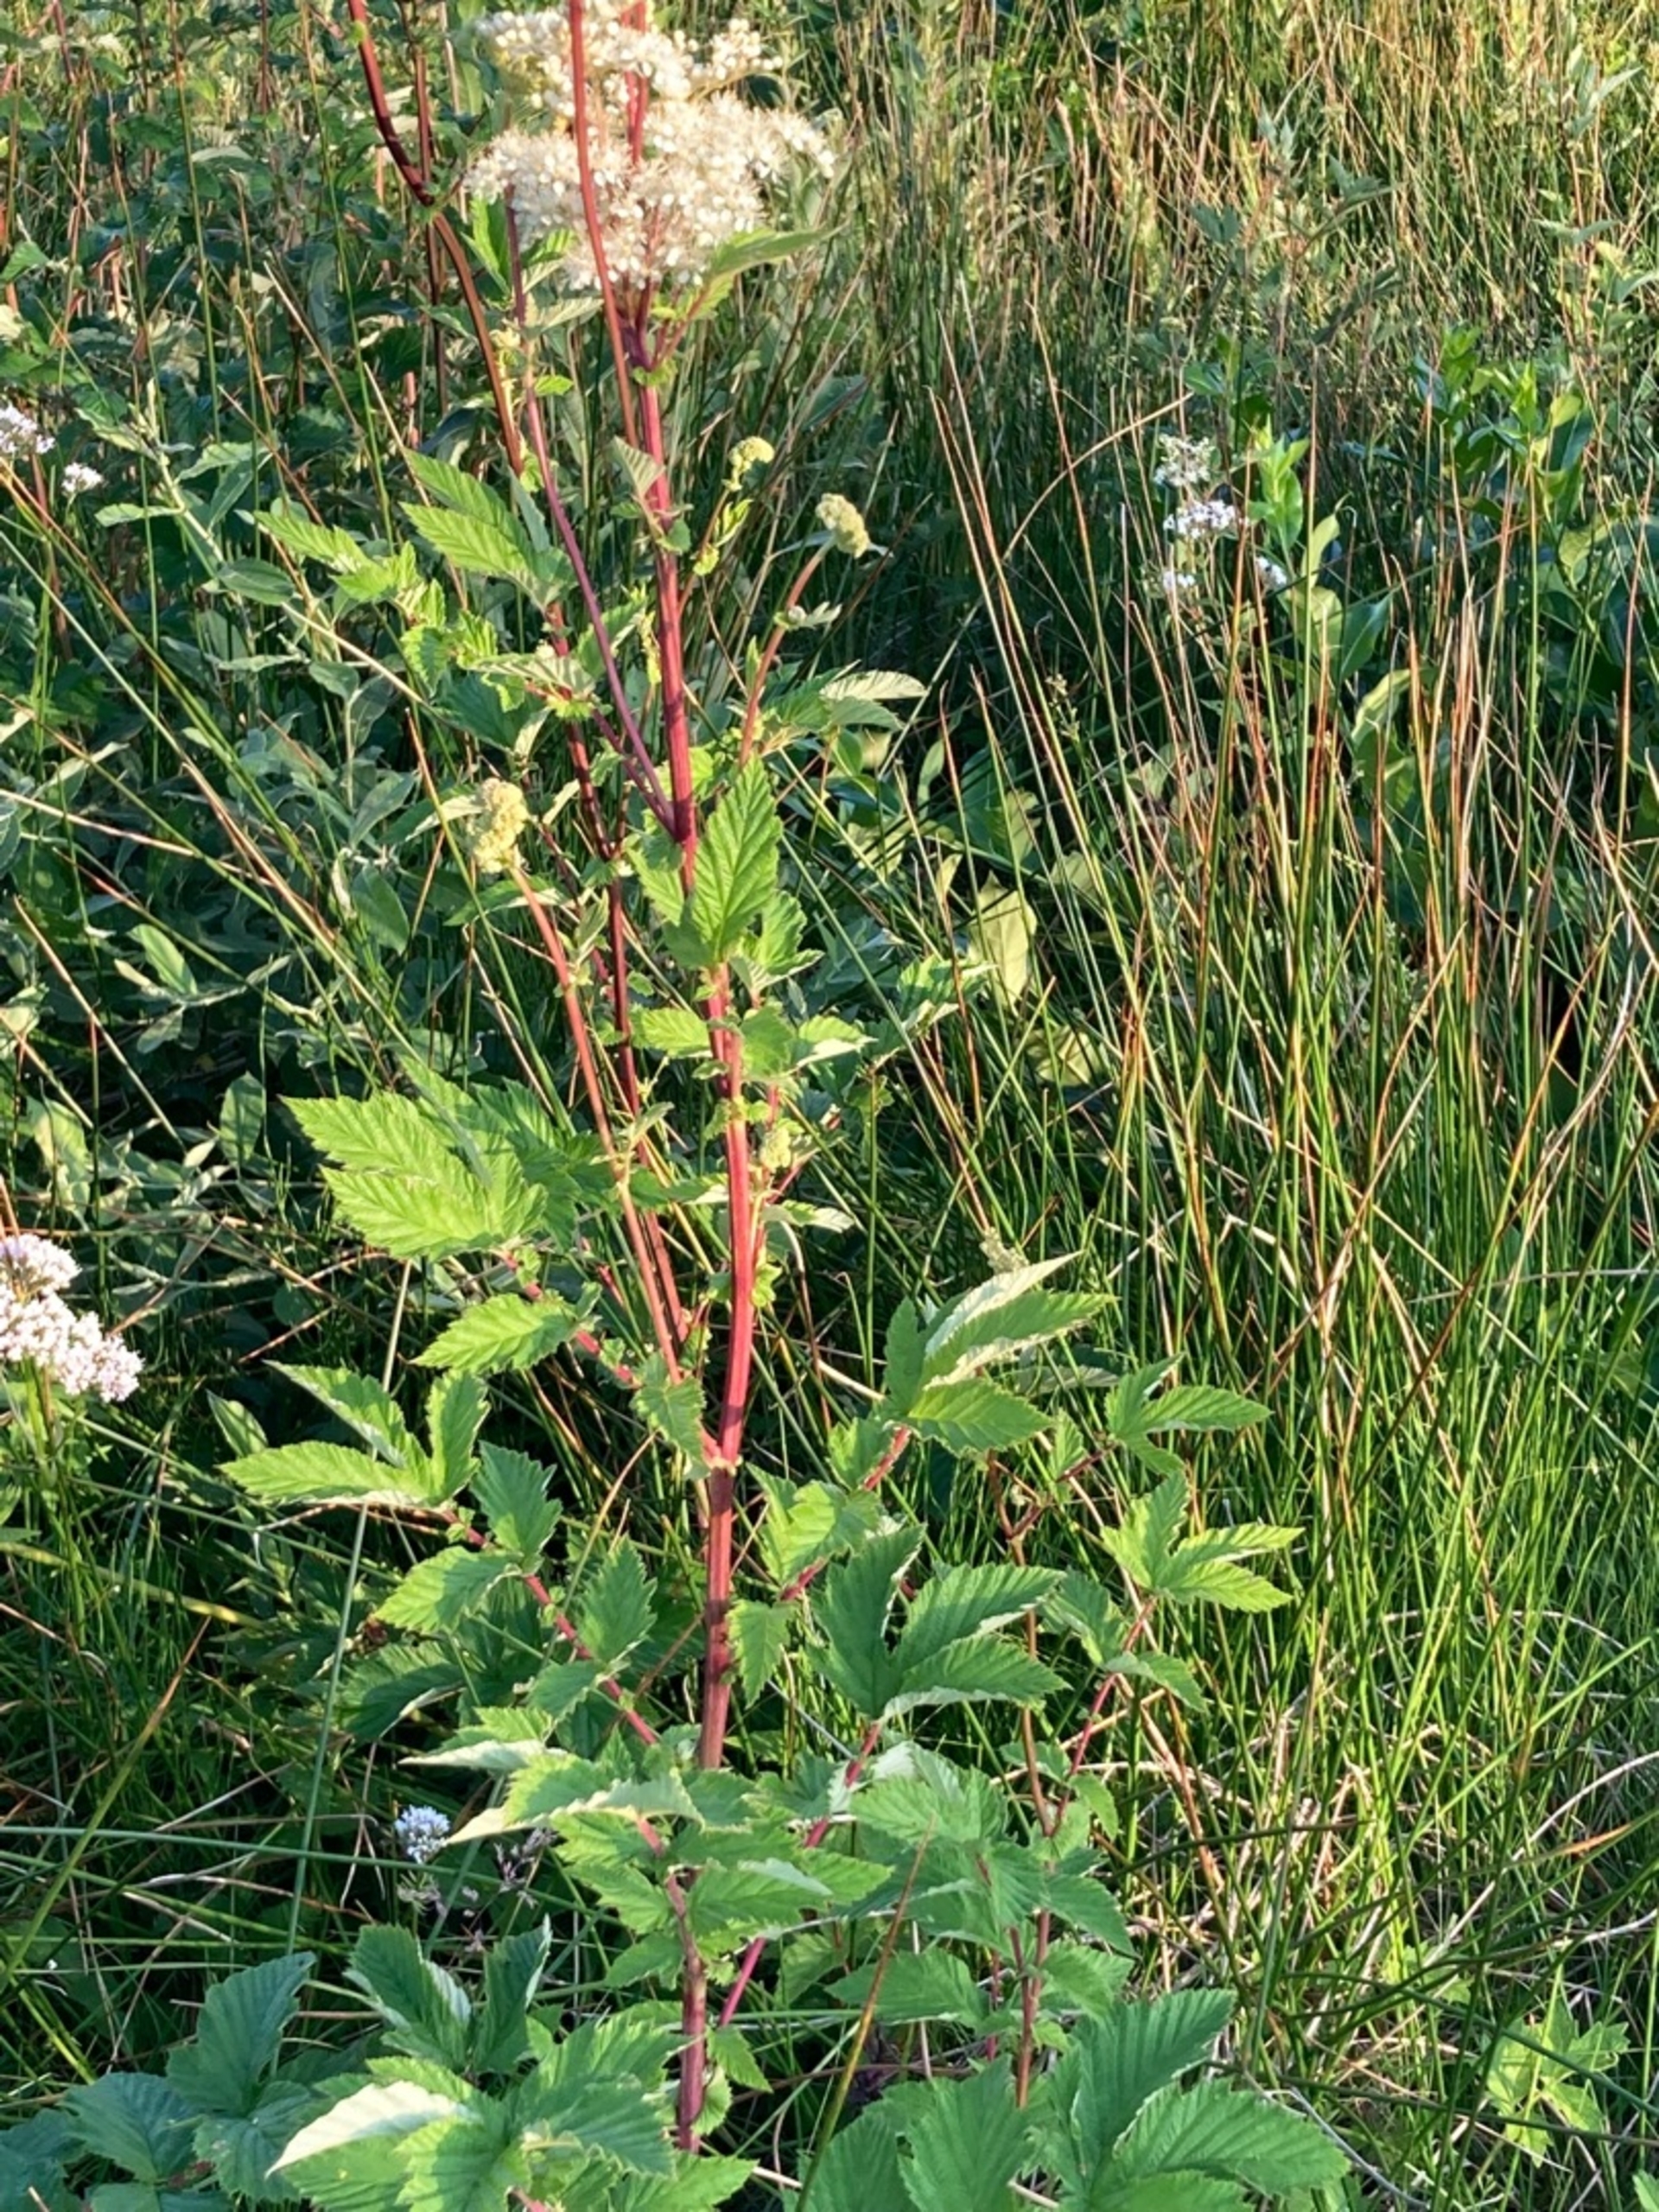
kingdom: Plantae
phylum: Tracheophyta
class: Magnoliopsida
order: Rosales
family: Rosaceae
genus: Filipendula
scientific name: Filipendula ulmaria
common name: Almindelig mjødurt
